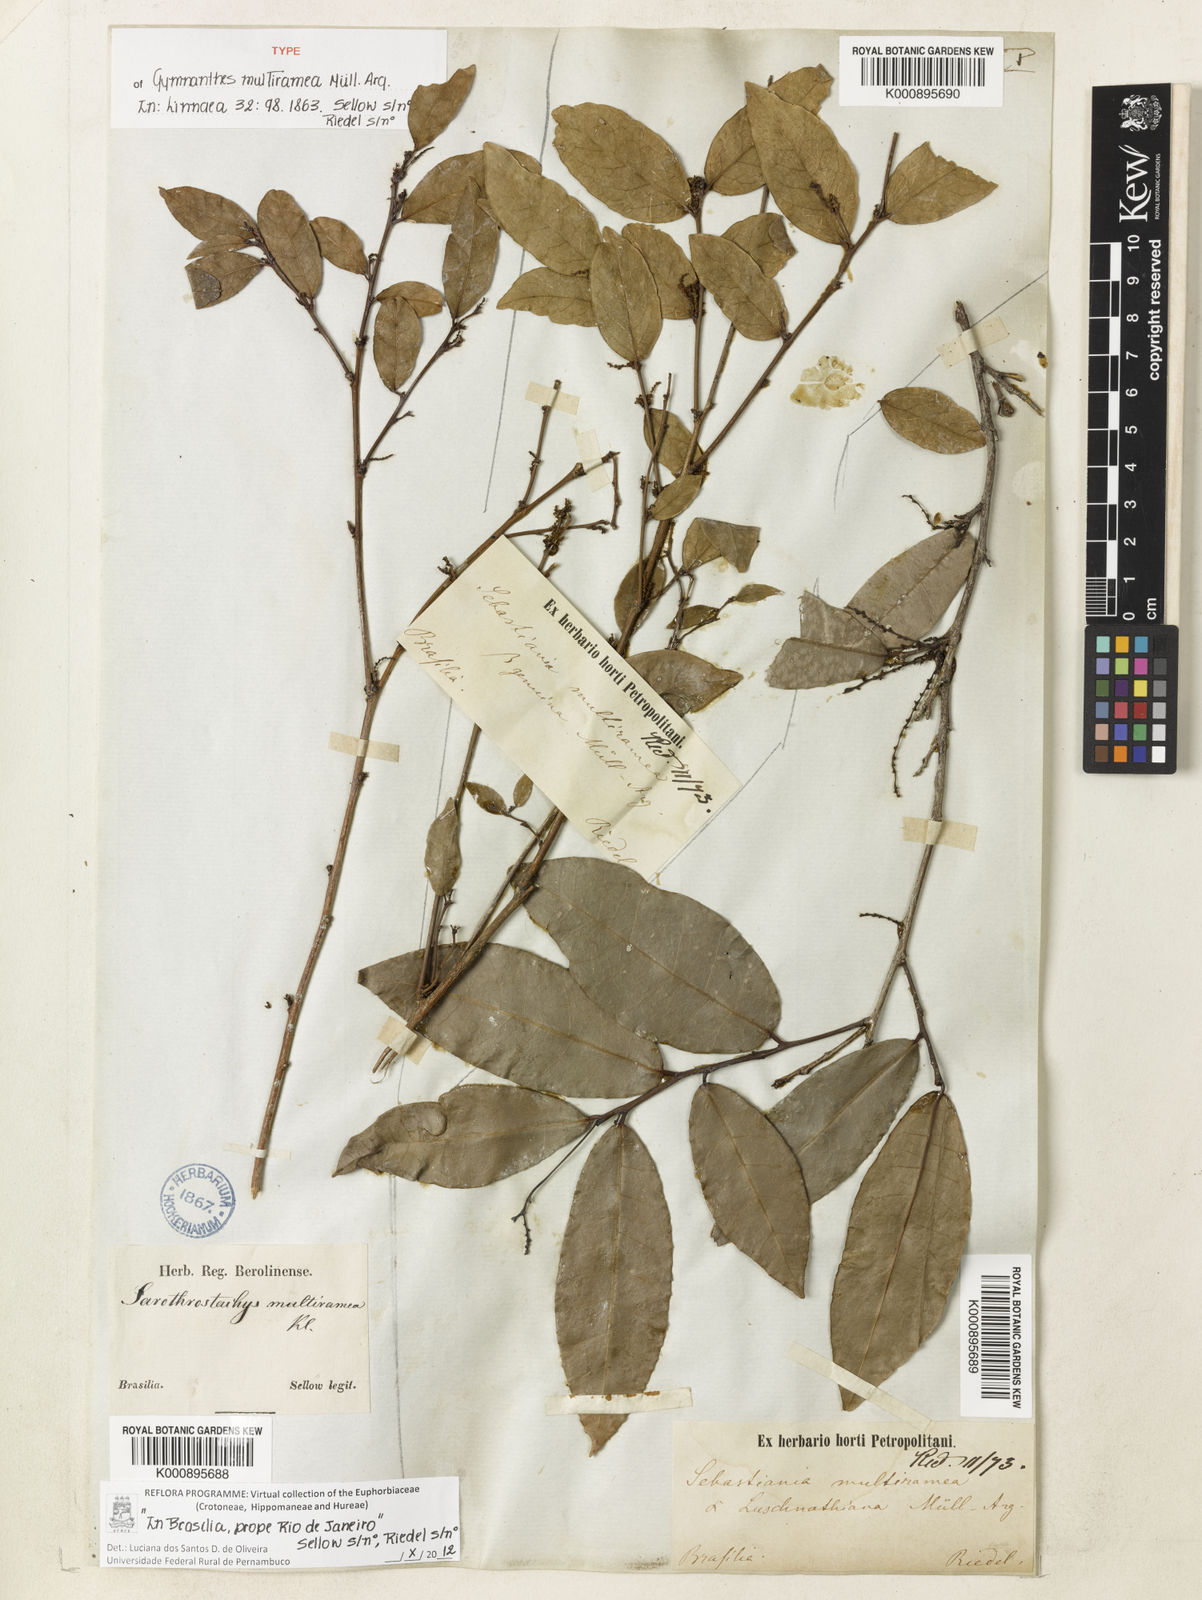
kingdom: Plantae
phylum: Tracheophyta
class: Magnoliopsida
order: Malpighiales
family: Euphorbiaceae
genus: Gymnanthes
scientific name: Gymnanthes glabrata
